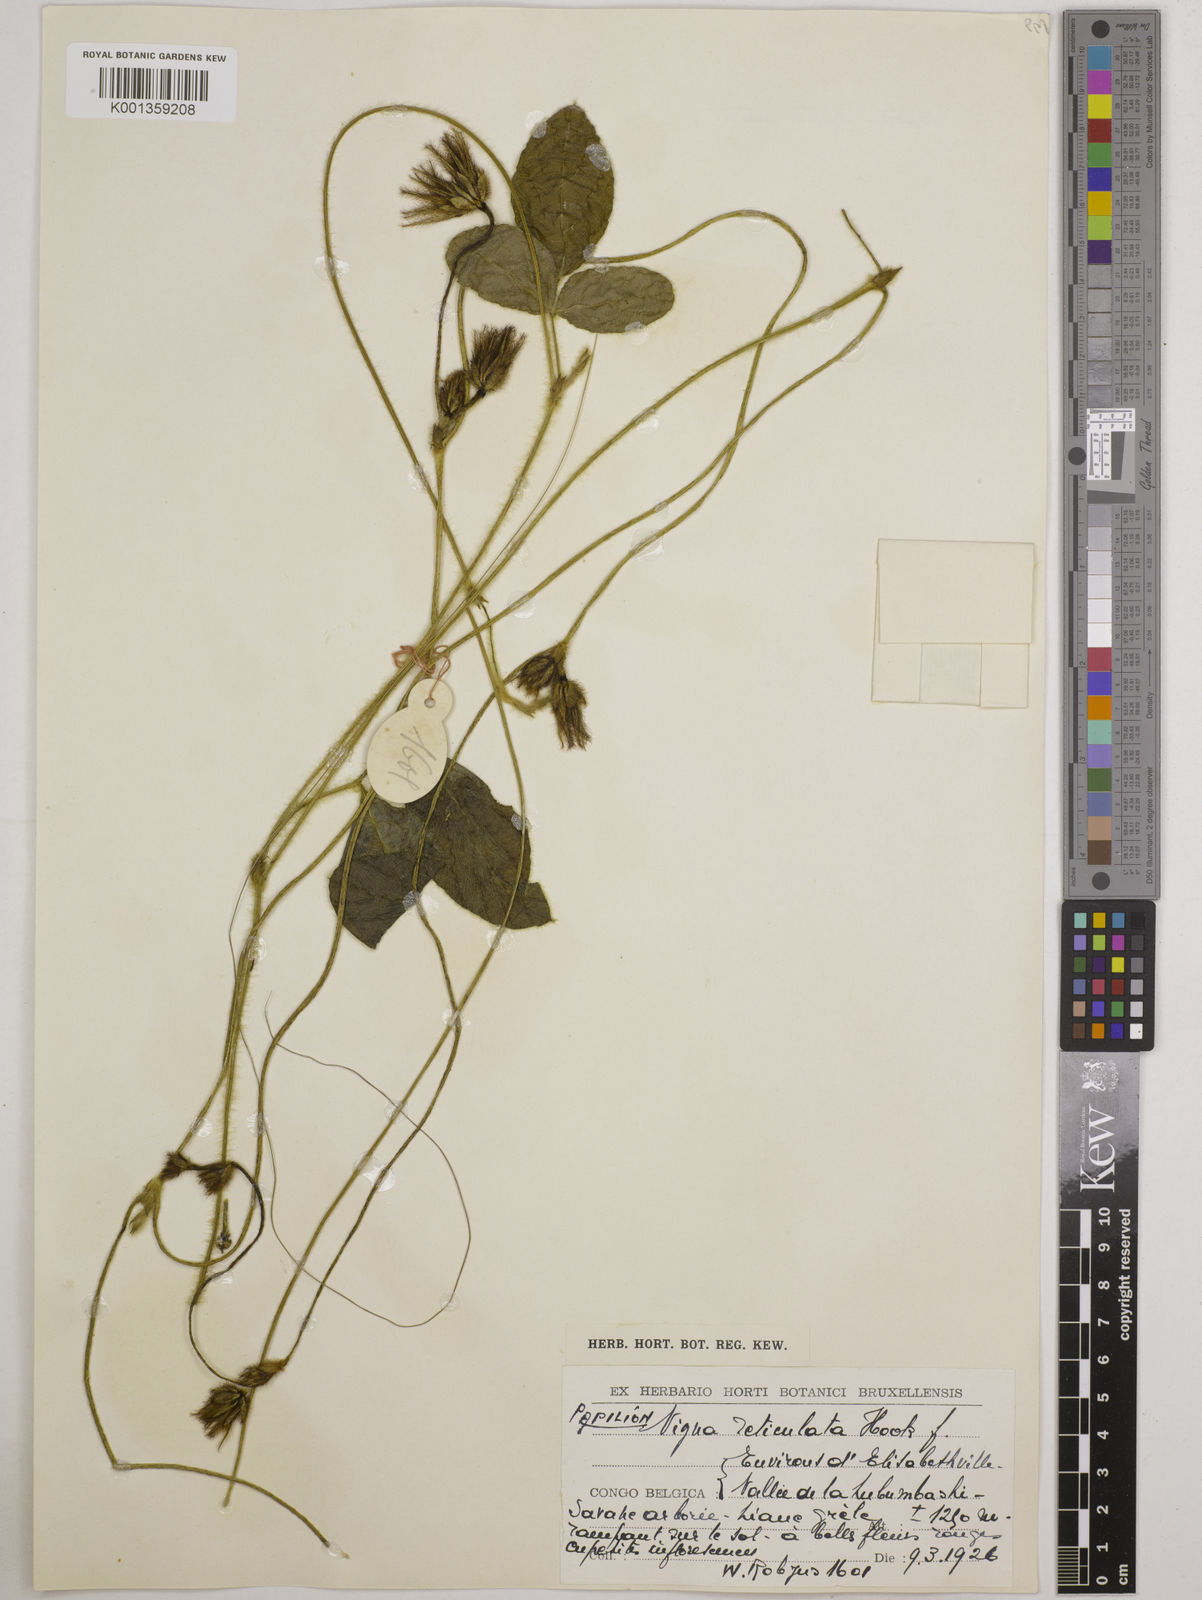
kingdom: Plantae
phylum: Tracheophyta
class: Magnoliopsida
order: Fabales
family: Fabaceae
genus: Vigna
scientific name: Vigna reticulata
